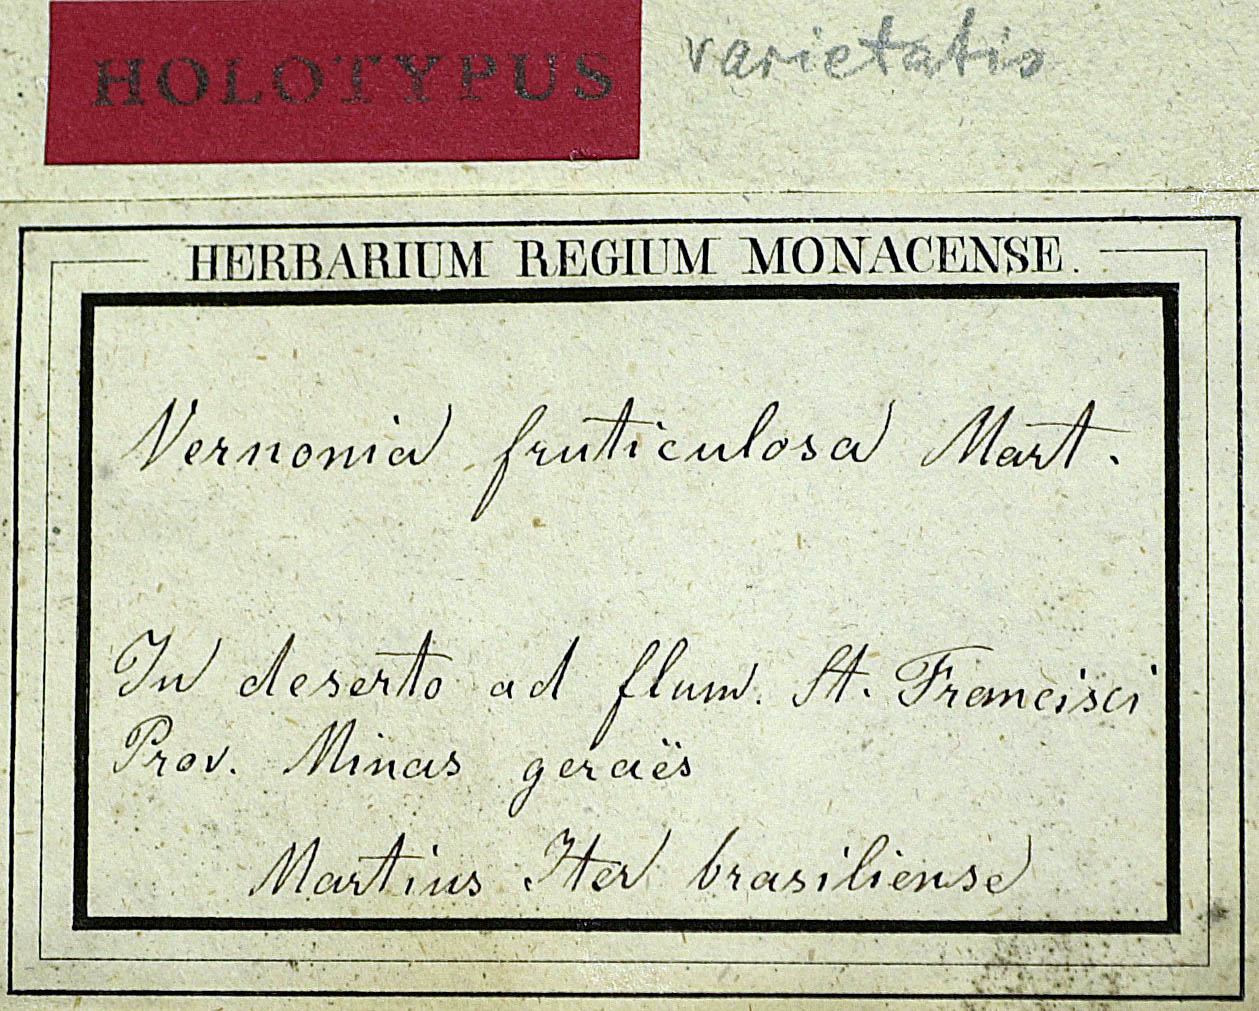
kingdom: Plantae
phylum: Tracheophyta
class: Magnoliopsida
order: Asterales
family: Asteraceae
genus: Lepidaploa
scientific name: Lepidaploa rufogrisea
